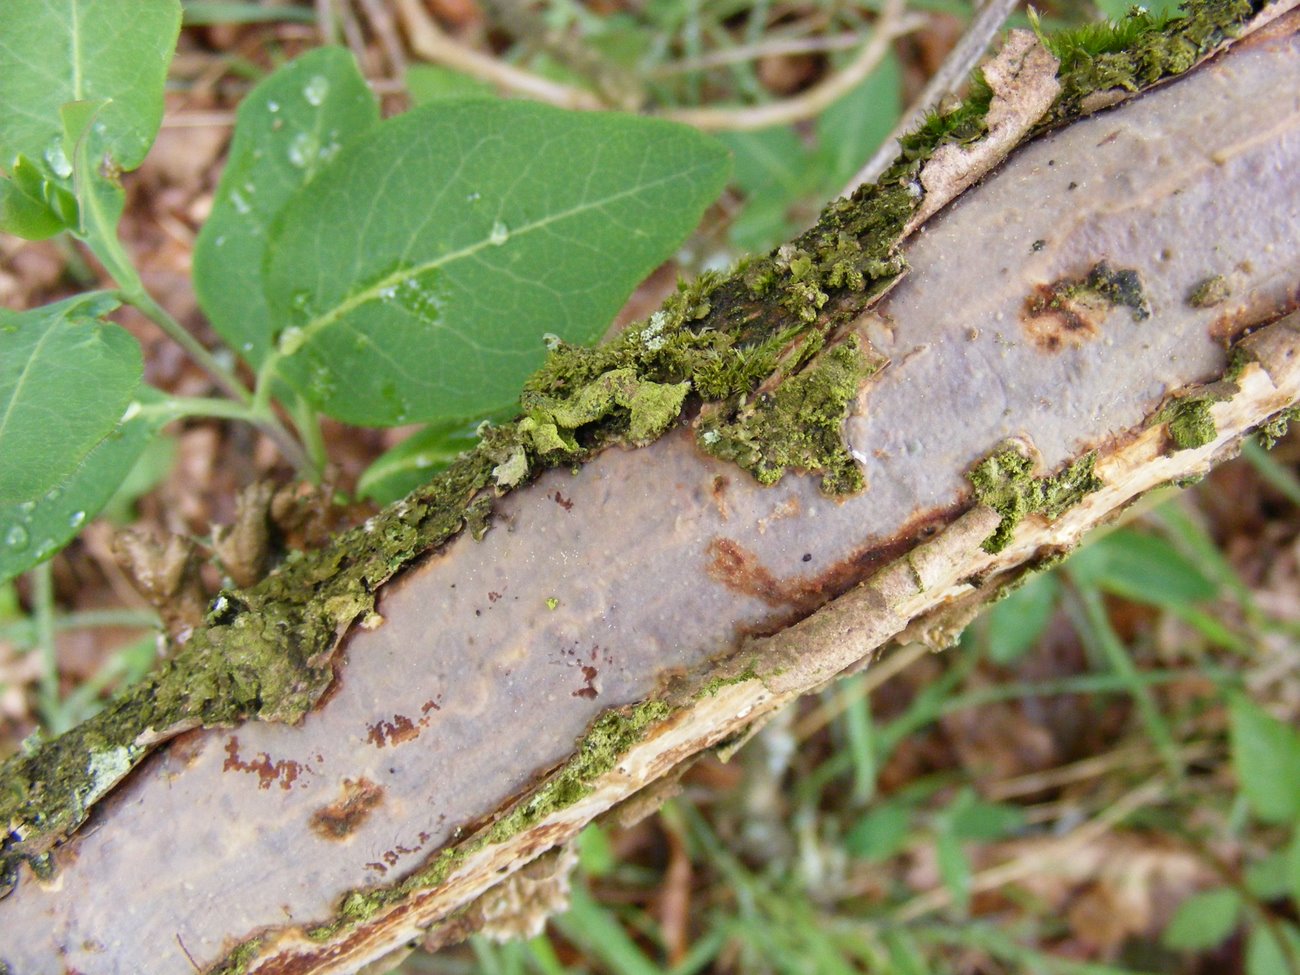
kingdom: Fungi
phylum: Basidiomycota
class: Agaricomycetes
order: Corticiales
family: Vuilleminiaceae
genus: Vuilleminia
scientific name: Vuilleminia comedens
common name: almindelig barksprænger
